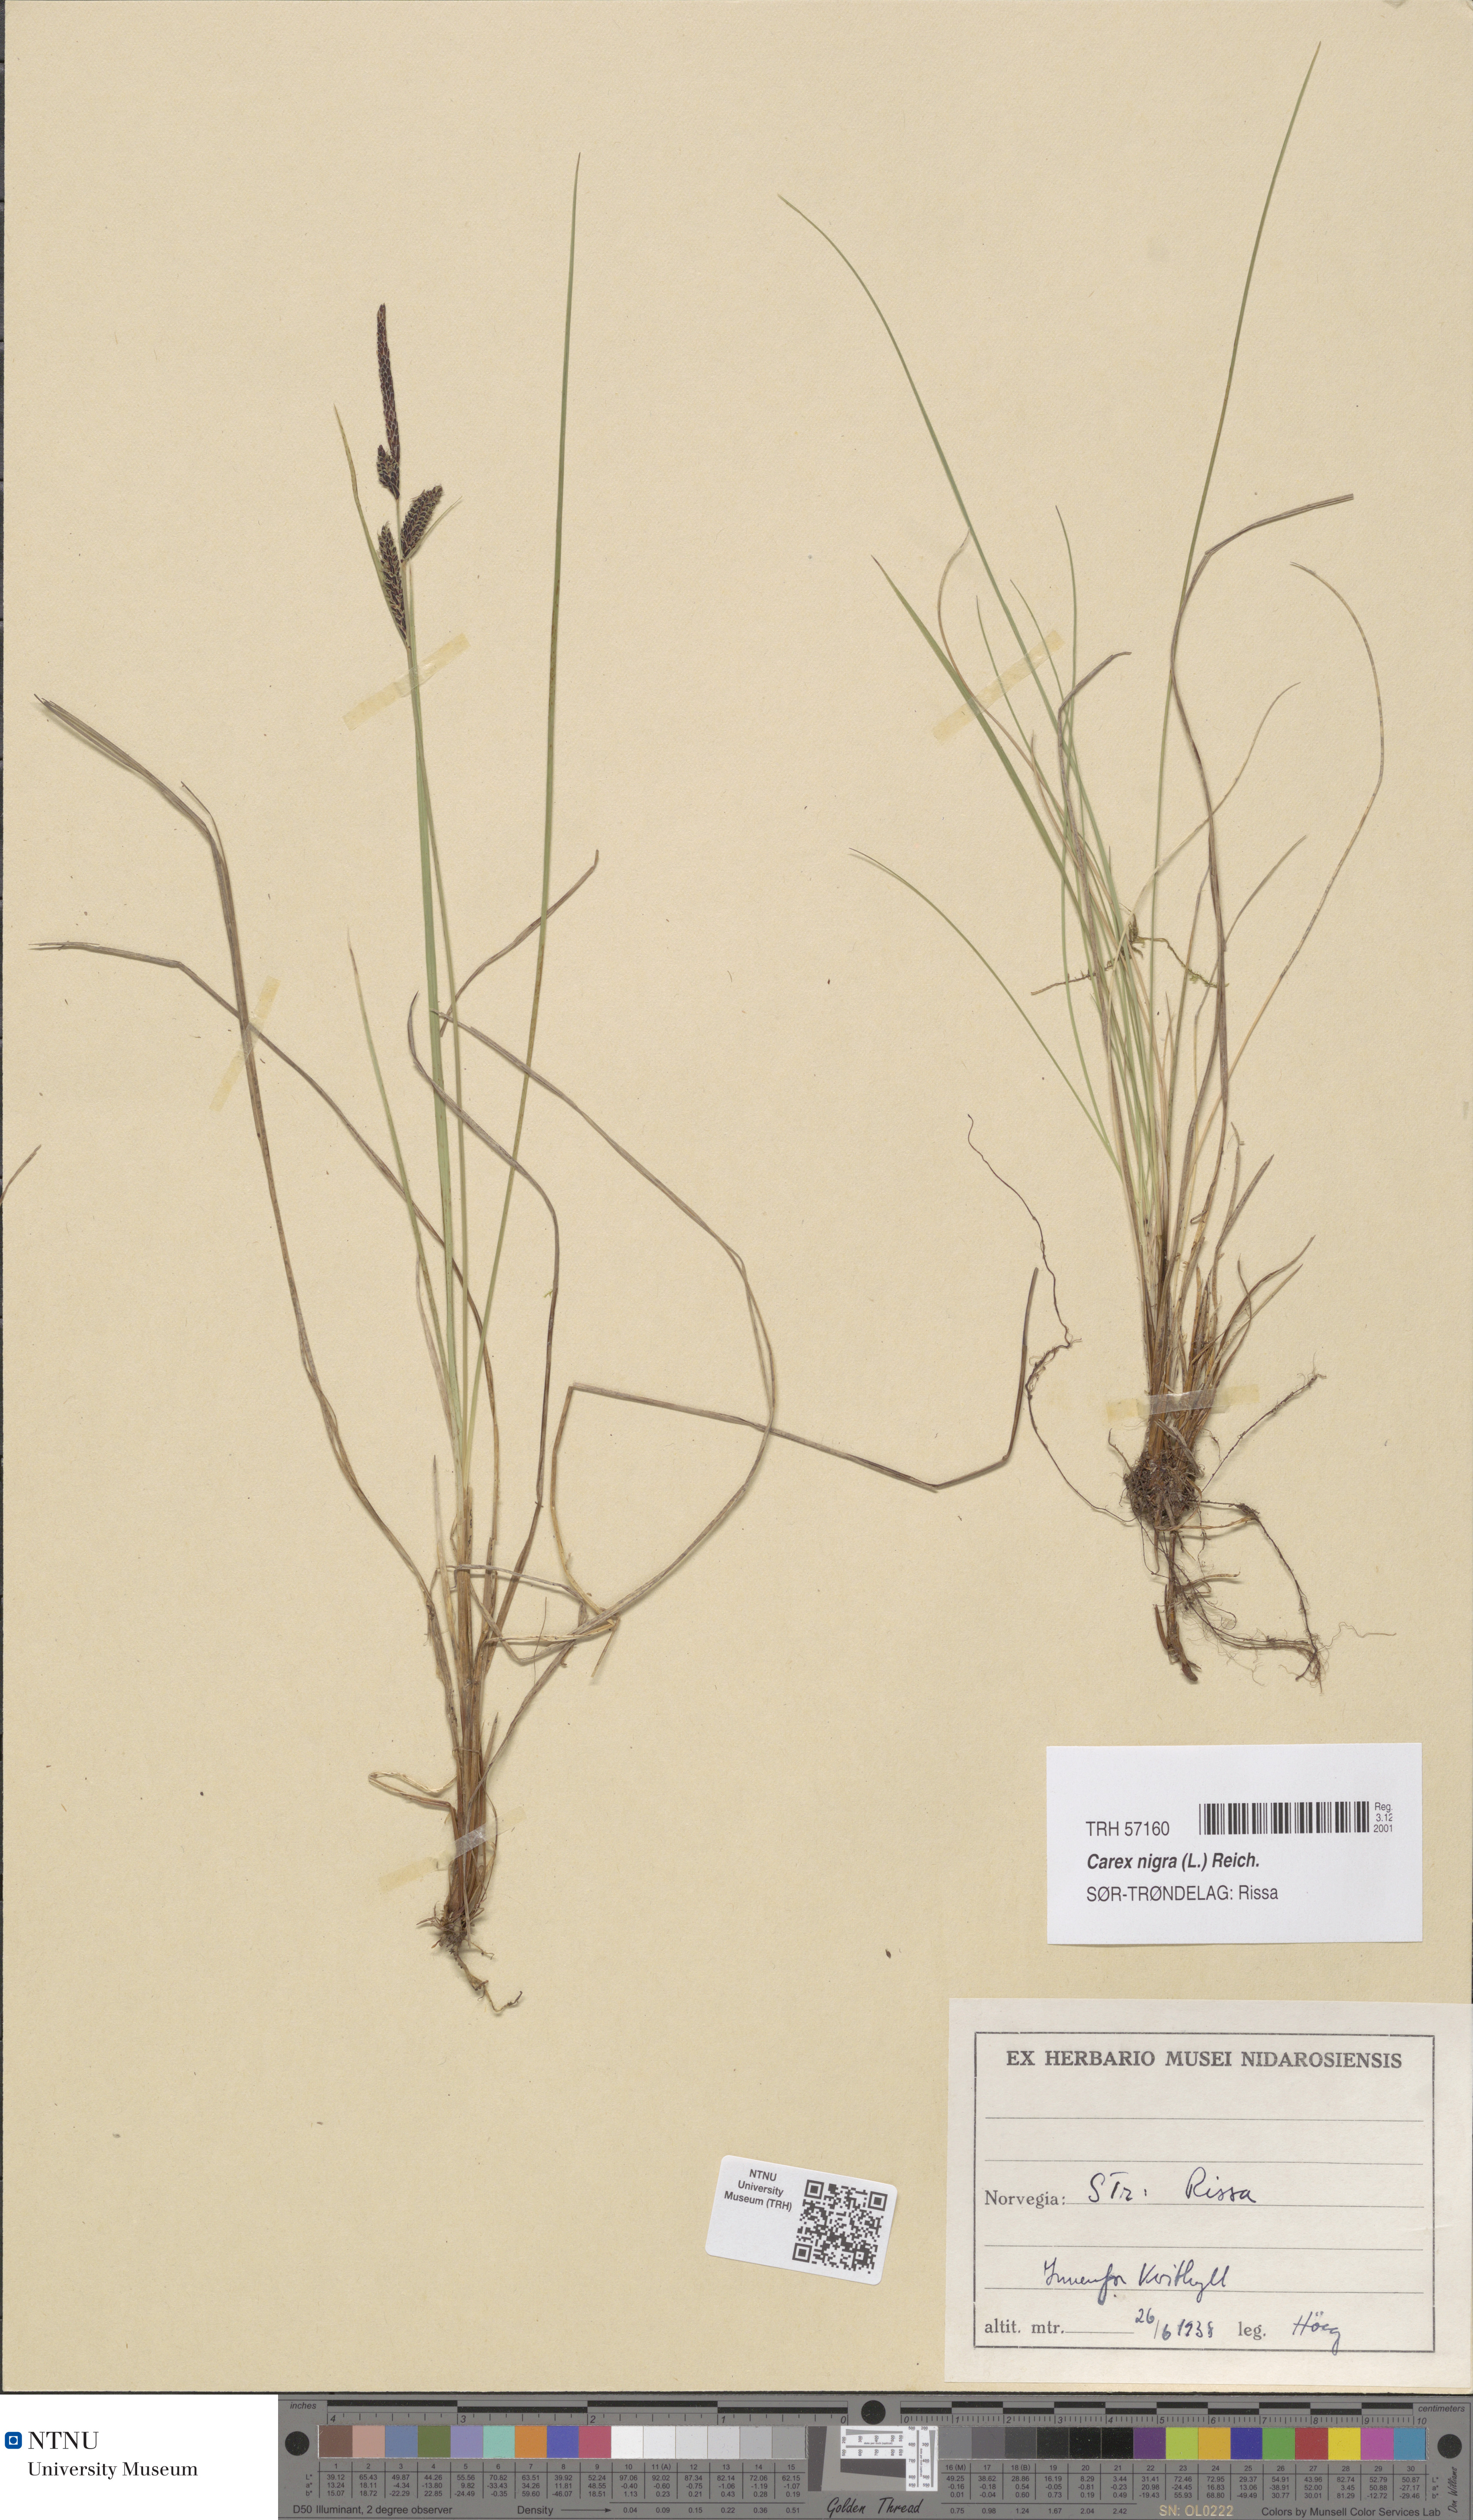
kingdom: Plantae
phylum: Tracheophyta
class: Liliopsida
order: Poales
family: Cyperaceae
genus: Carex
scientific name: Carex nigra
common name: Common sedge
